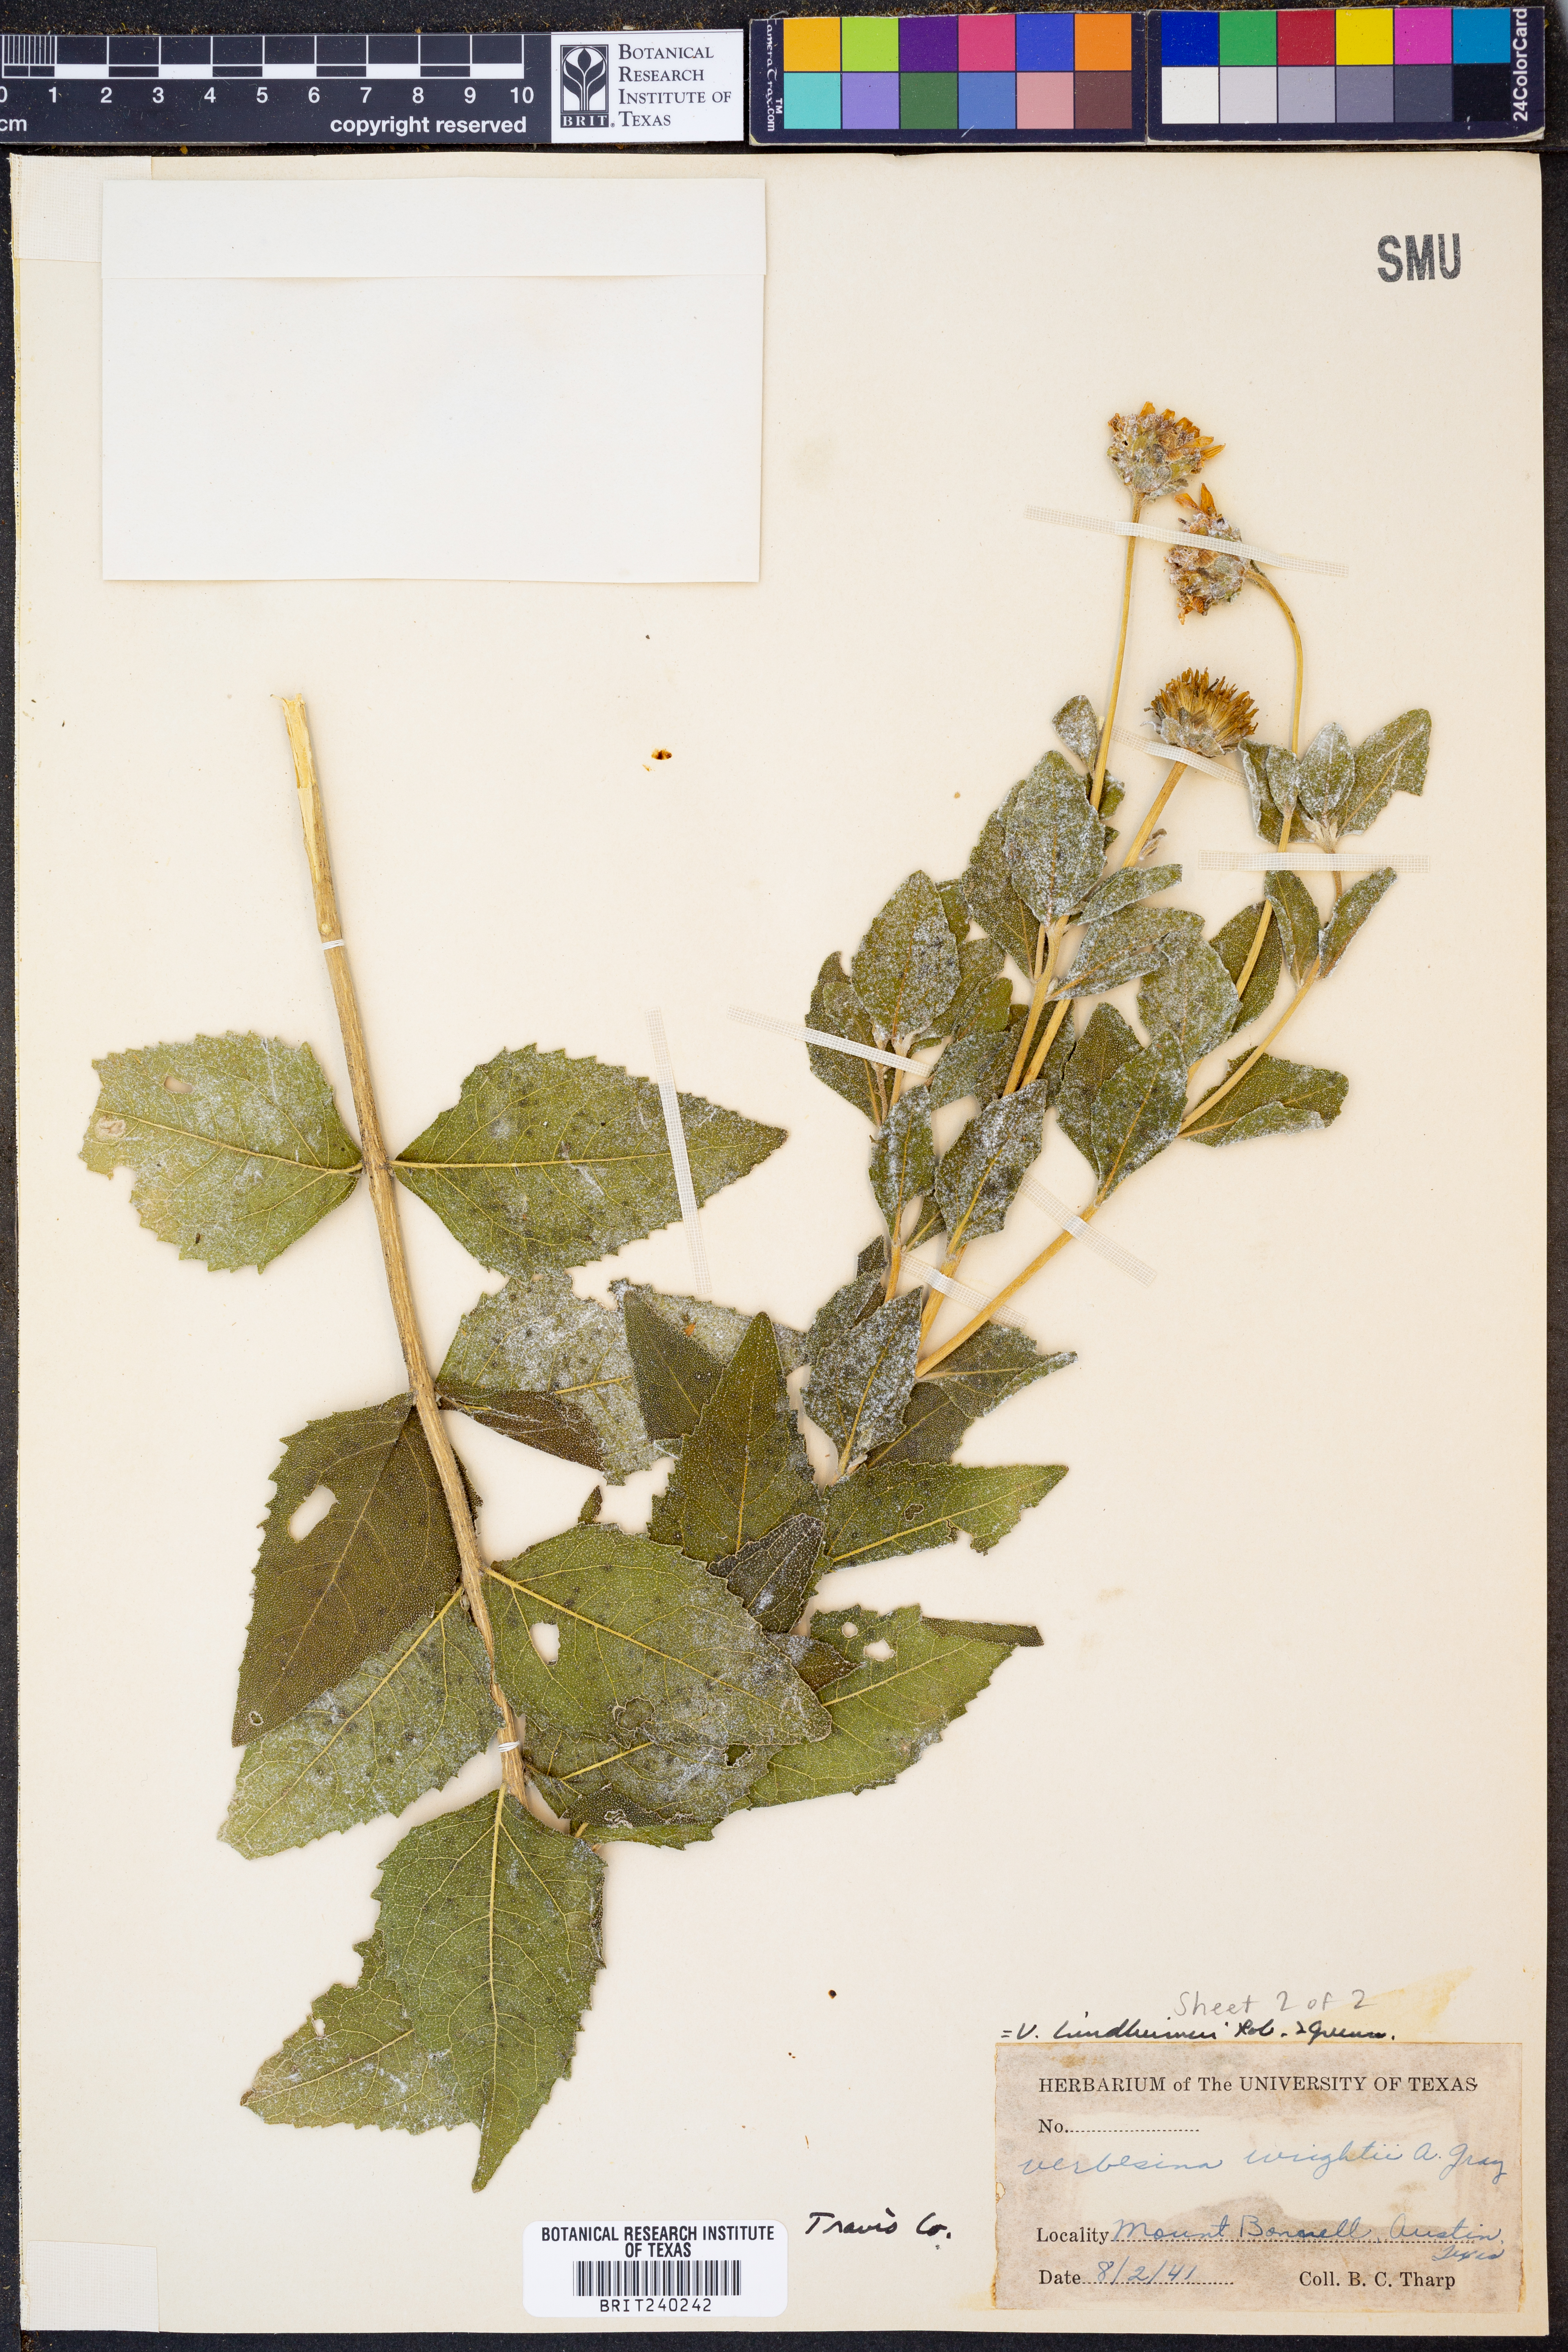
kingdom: Plantae
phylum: Tracheophyta
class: Magnoliopsida
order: Asterales
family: Asteraceae
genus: Verbesina
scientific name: Verbesina lindheimeri
